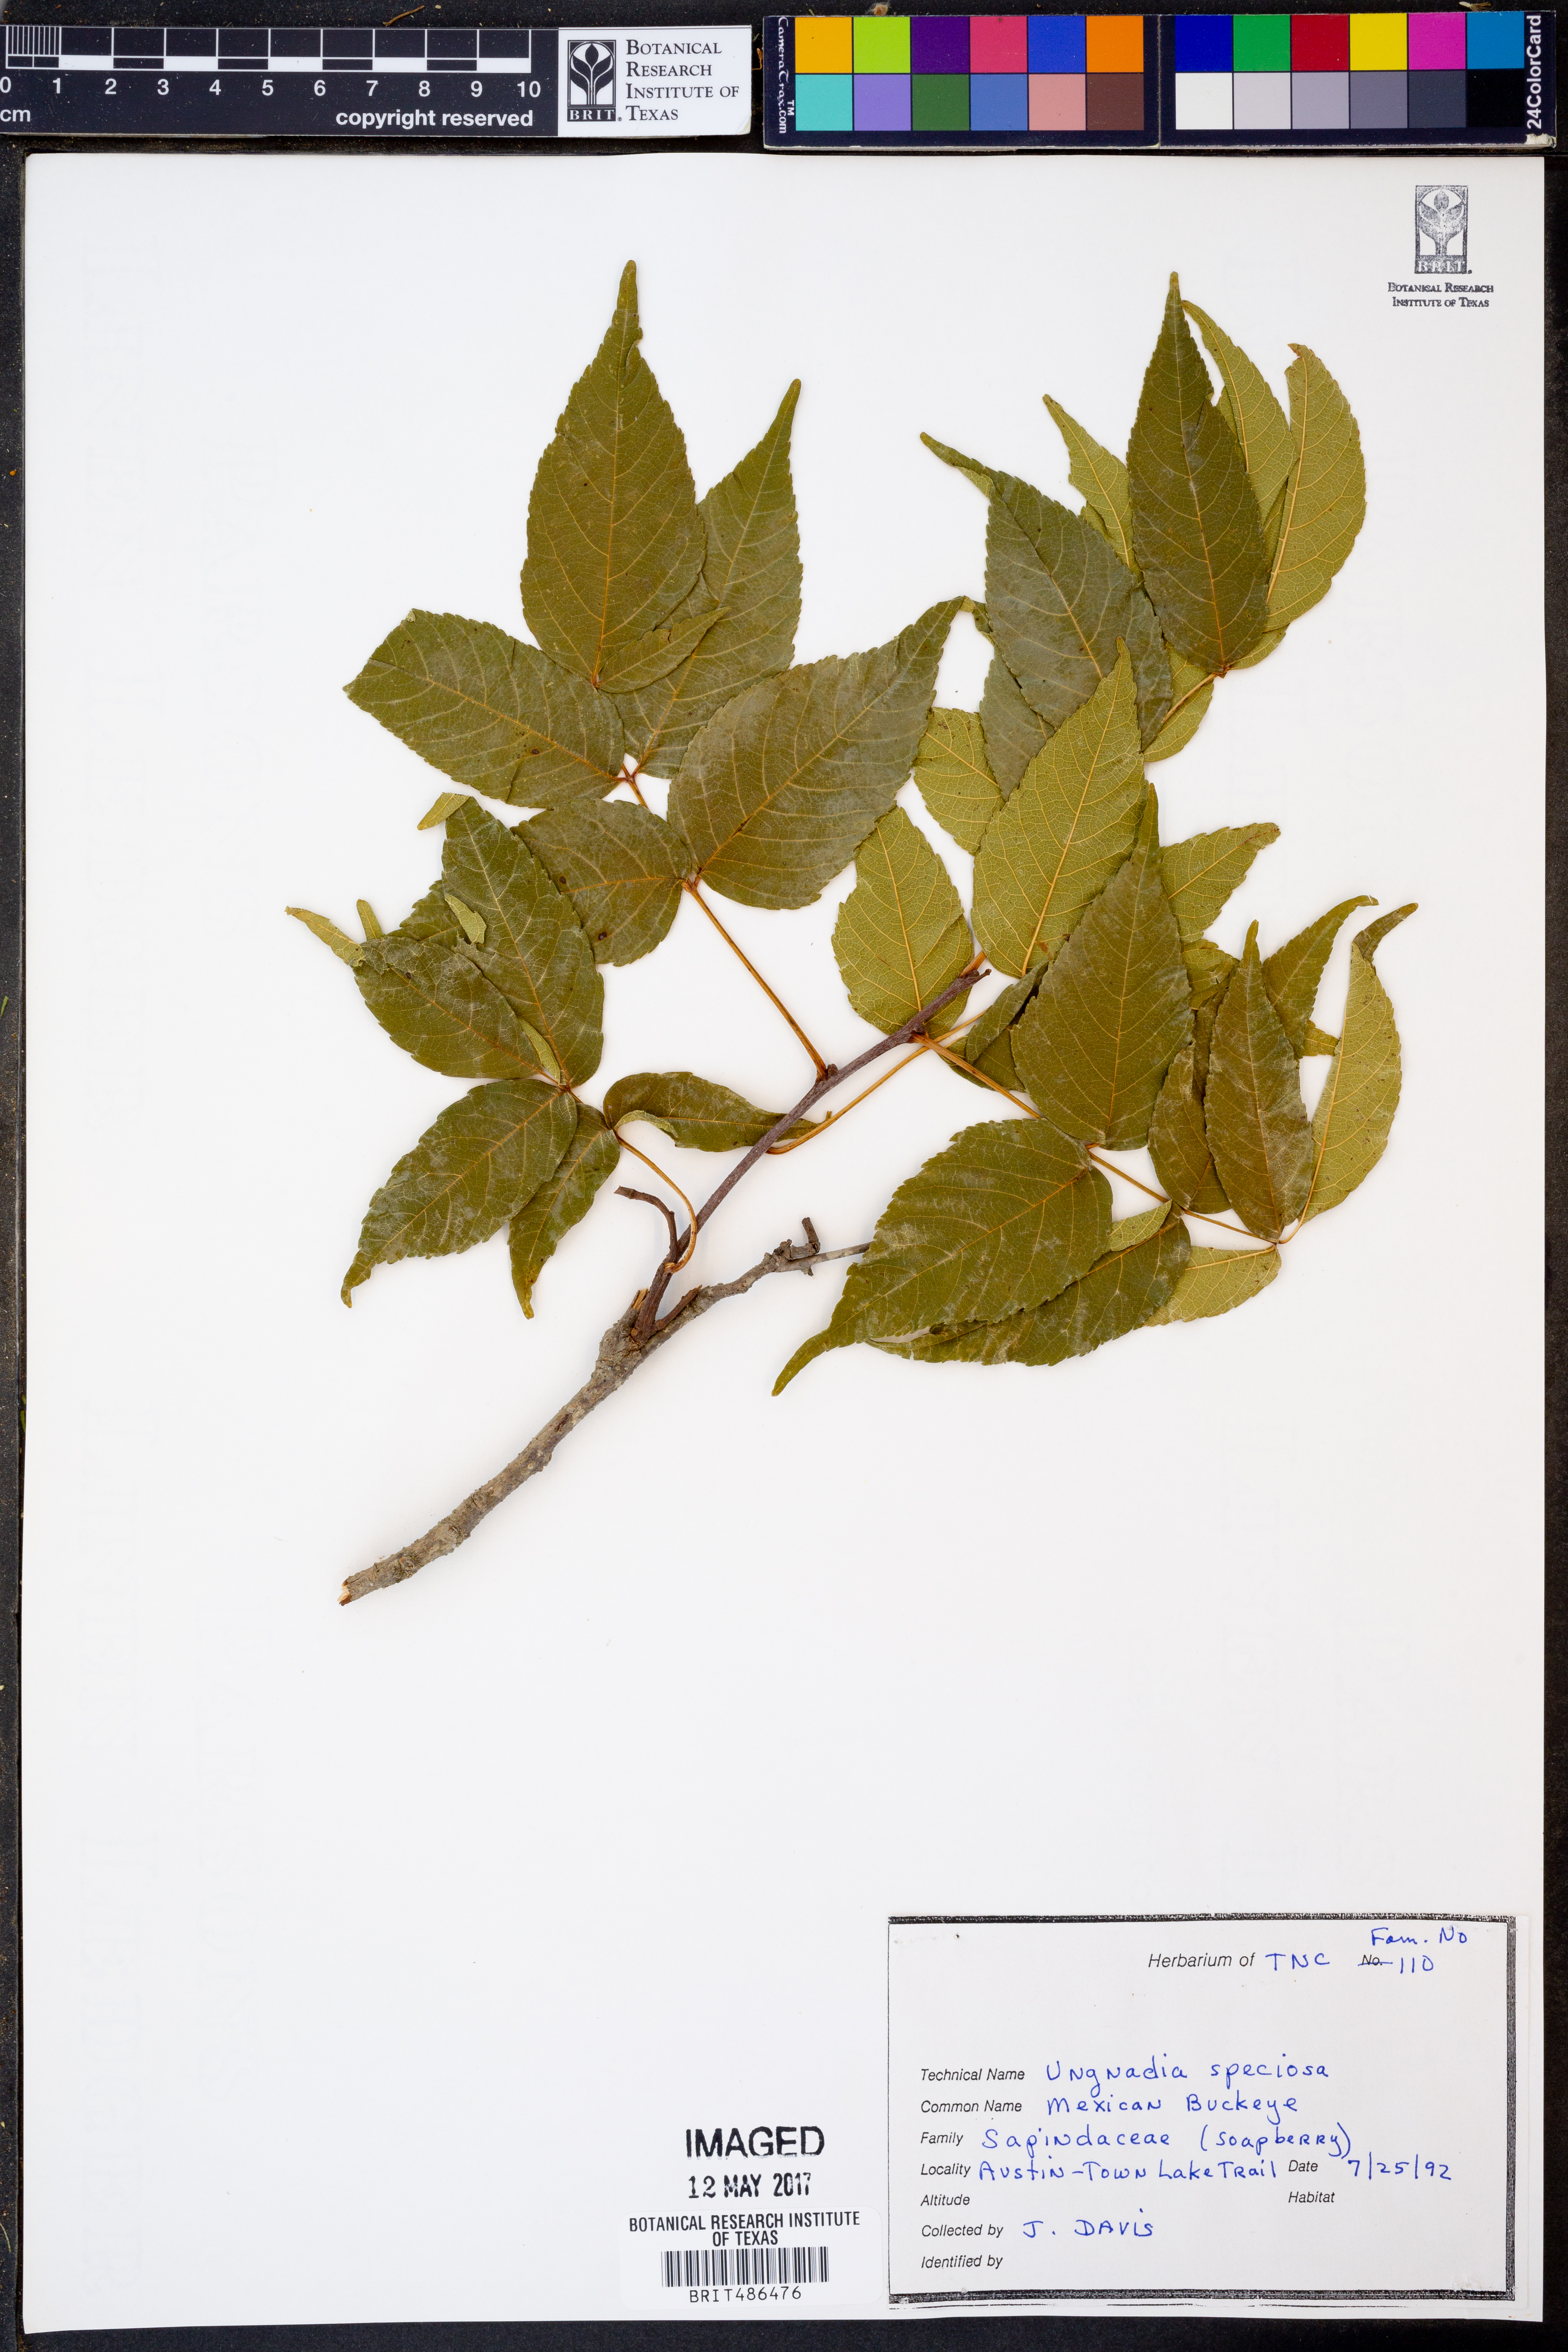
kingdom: Plantae
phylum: Tracheophyta
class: Magnoliopsida
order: Sapindales
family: Sapindaceae
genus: Ungnadia
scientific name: Ungnadia speciosa
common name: Texas-buckeye
